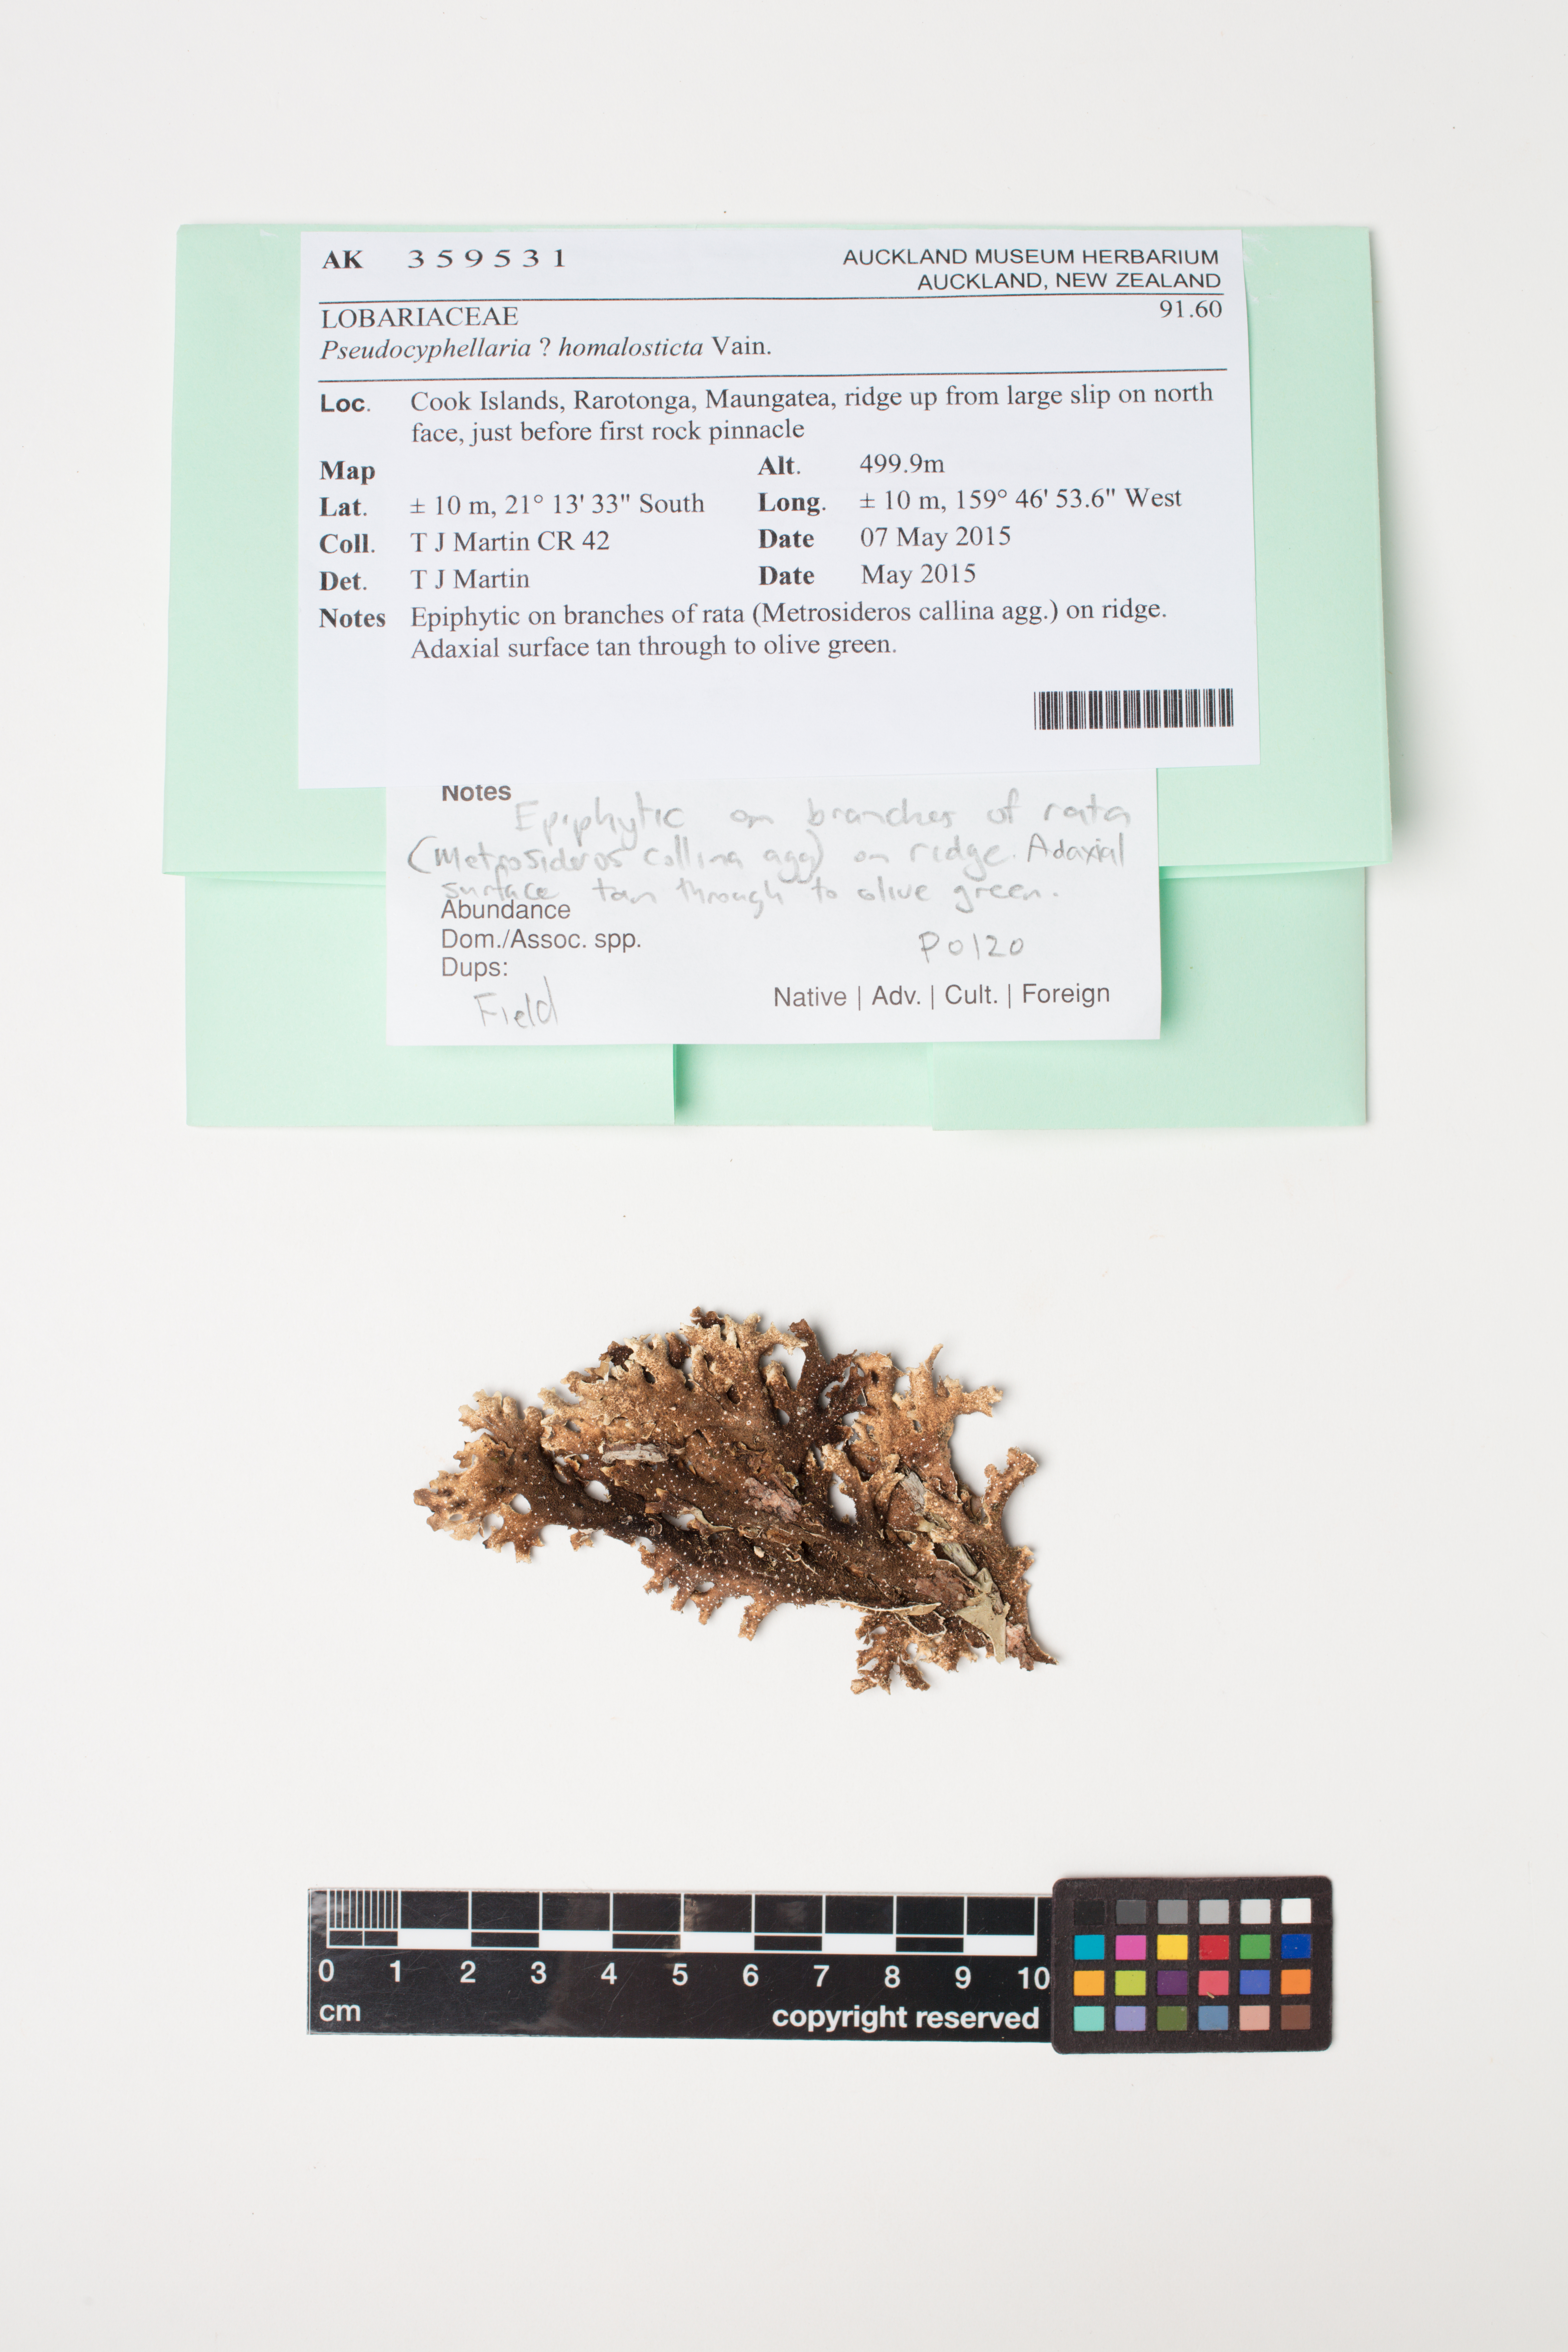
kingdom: Plantae
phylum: Bryophyta
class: Bryopsida
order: Grimmiales
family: Grimmiaceae
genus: Grimmia
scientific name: Grimmia pulvinata
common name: Grey-cushioned grimmia
